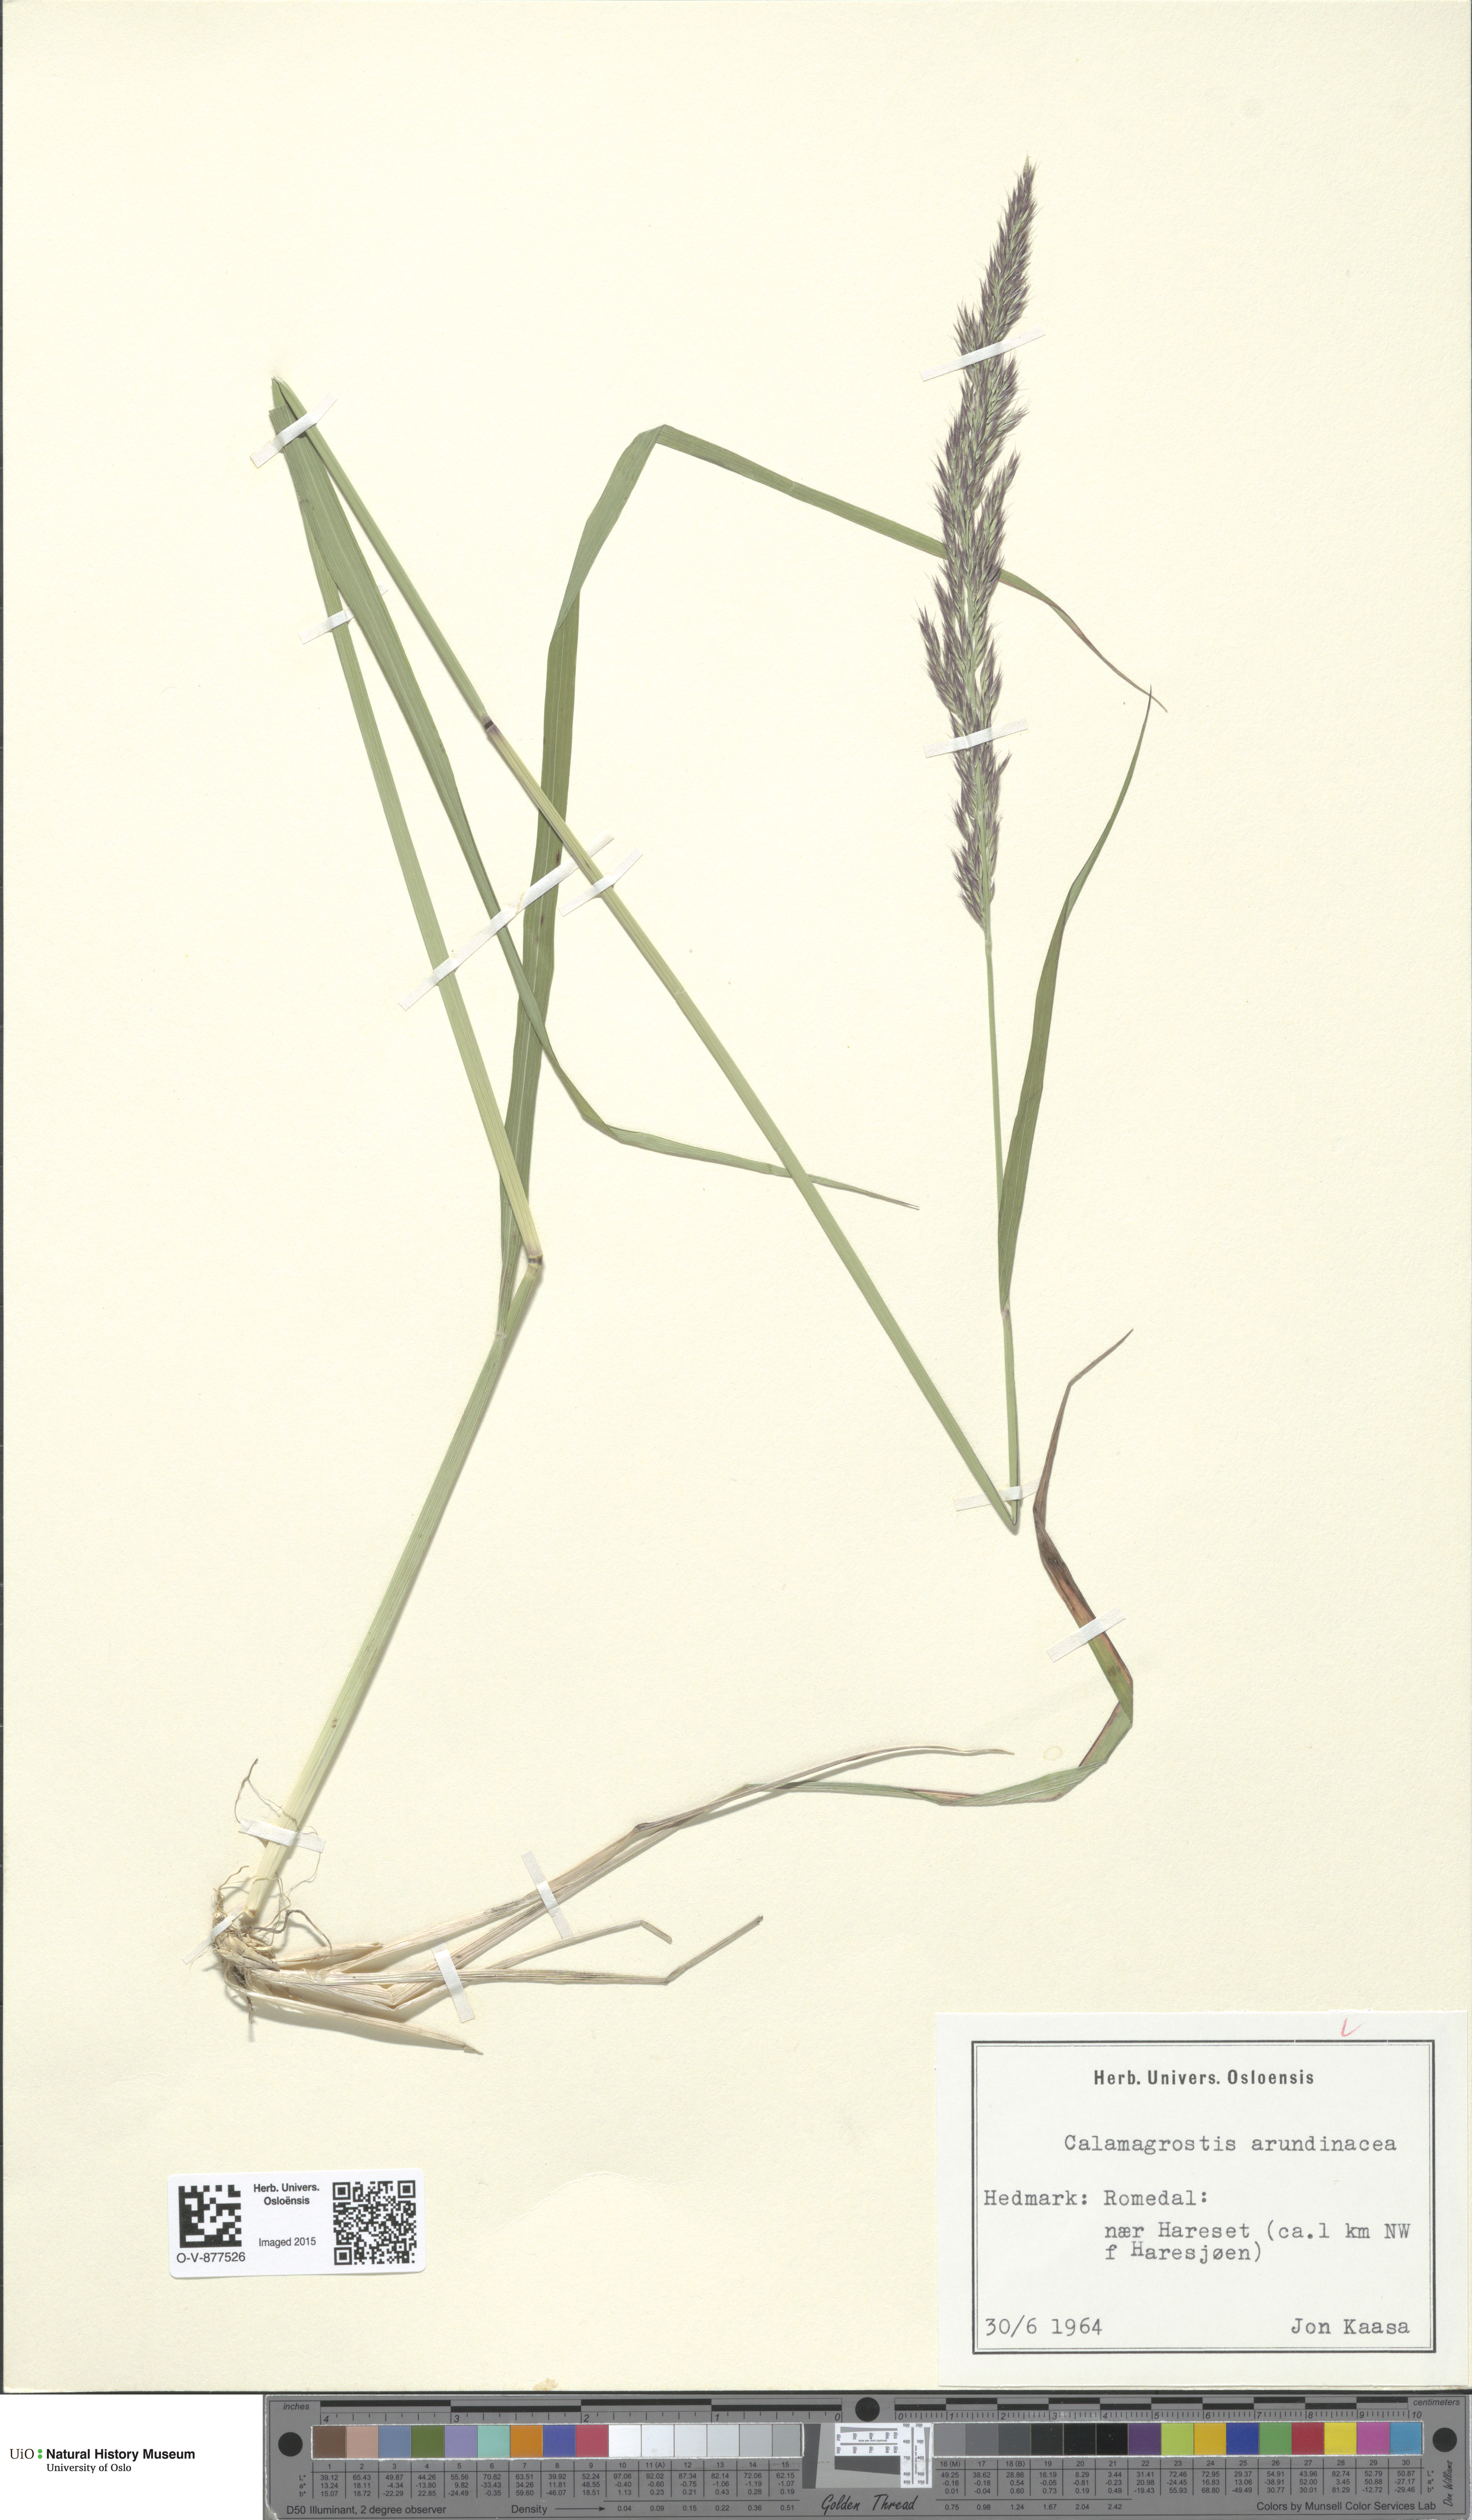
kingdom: Plantae
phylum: Tracheophyta
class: Liliopsida
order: Poales
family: Poaceae
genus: Calamagrostis
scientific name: Calamagrostis arundinacea
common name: Metskastik
